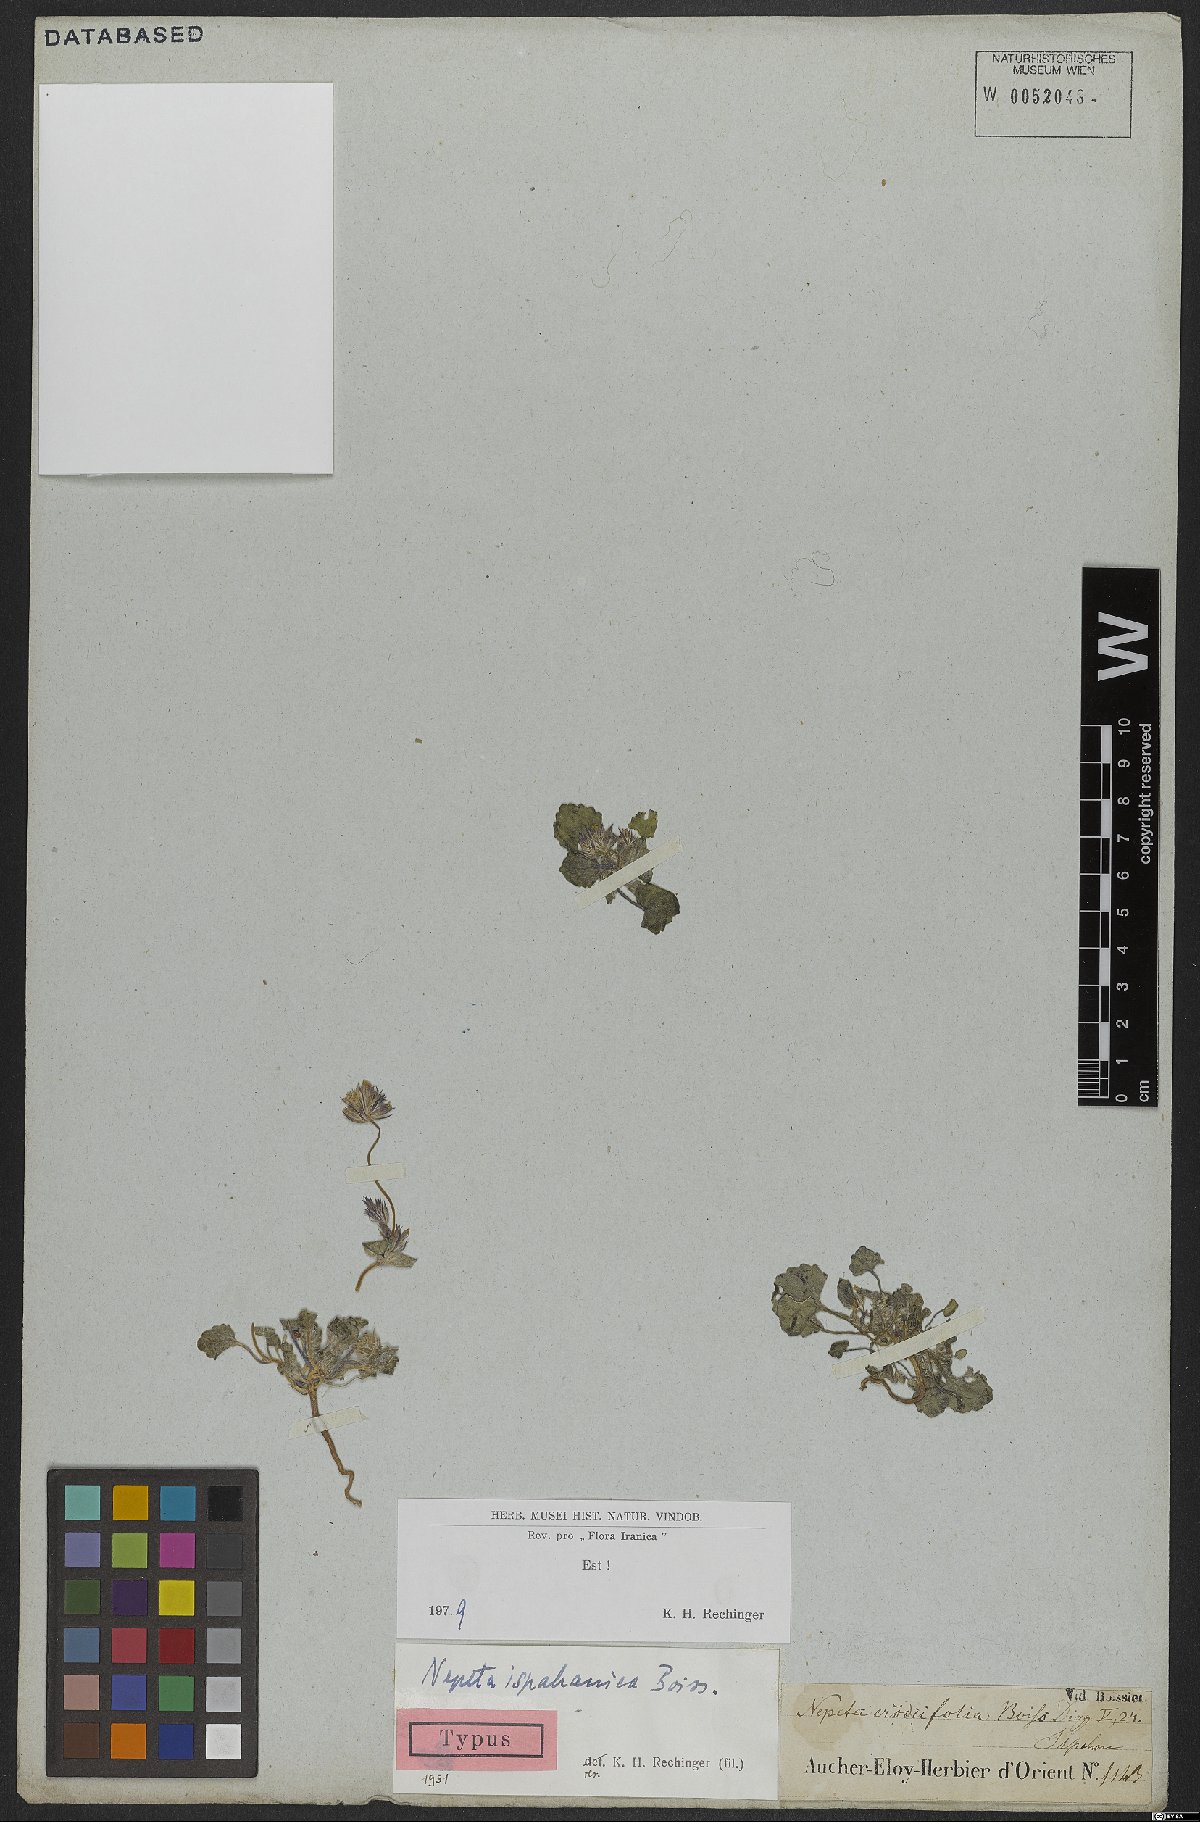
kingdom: Plantae
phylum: Tracheophyta
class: Magnoliopsida
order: Lamiales
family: Lamiaceae
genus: Nepeta
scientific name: Nepeta ispahanica
